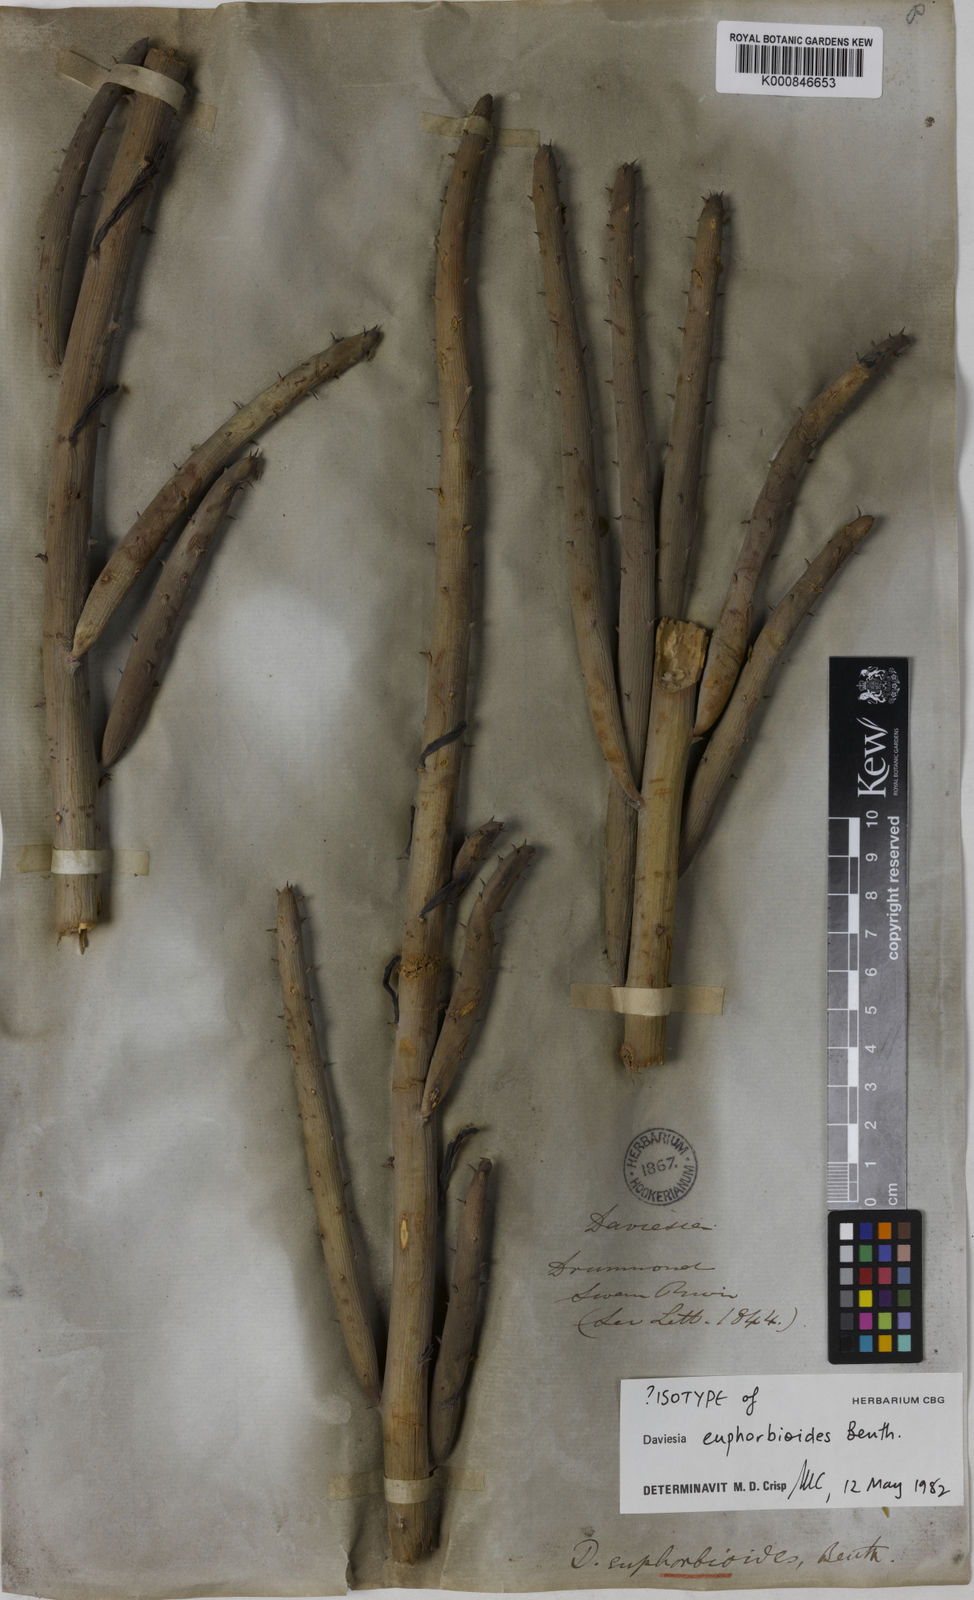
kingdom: Plantae
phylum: Tracheophyta
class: Magnoliopsida
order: Fabales
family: Fabaceae
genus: Daviesia
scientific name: Daviesia euphorbioides
